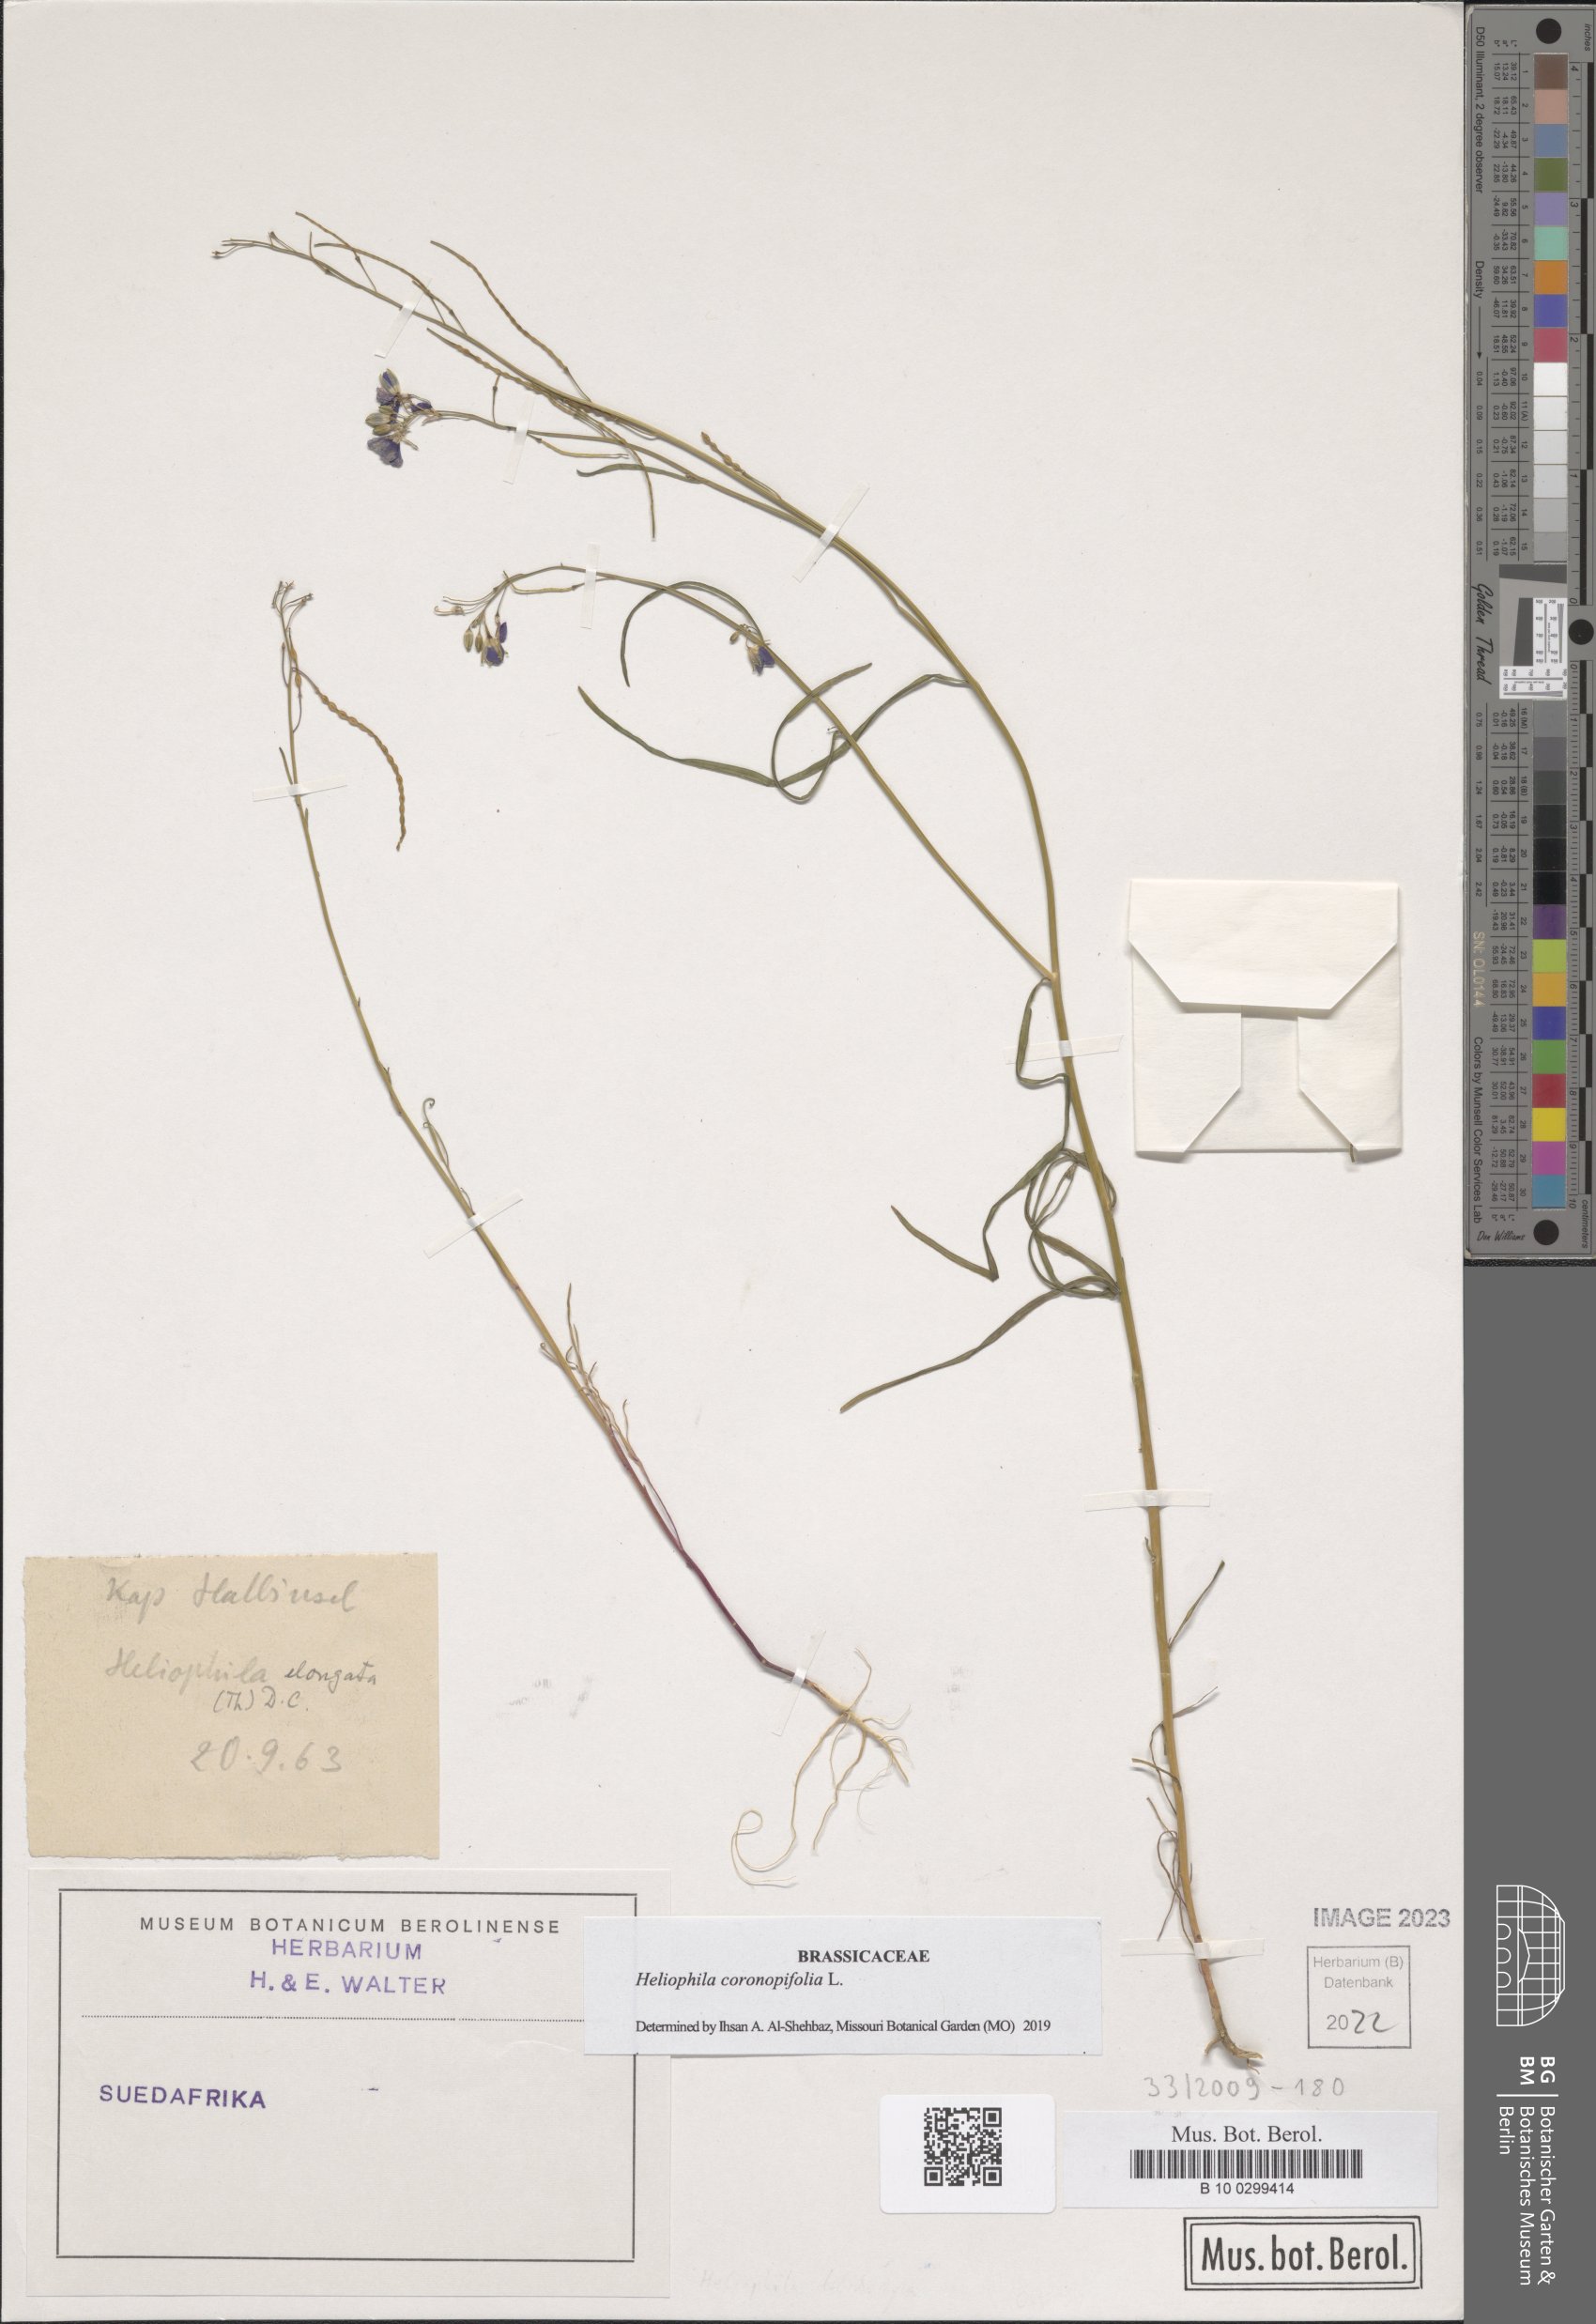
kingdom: Plantae
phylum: Tracheophyta
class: Magnoliopsida
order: Brassicales
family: Brassicaceae
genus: Heliophila
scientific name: Heliophila coronopifolia
